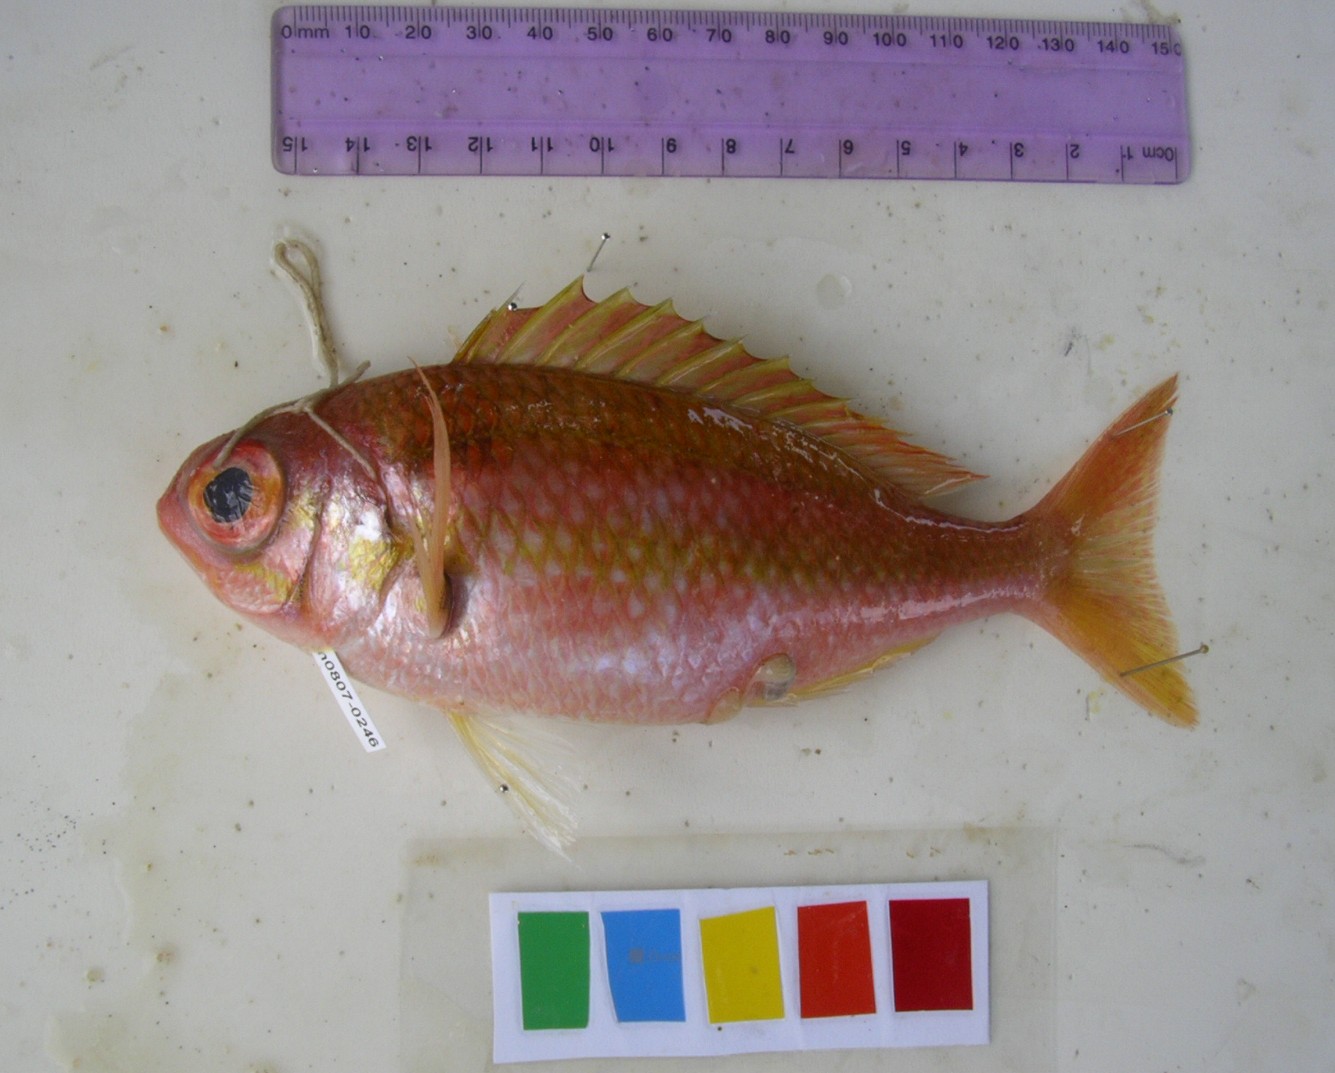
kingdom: Animalia
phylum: Chordata
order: Perciformes
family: Nemipteridae
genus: Parascolopsis
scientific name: Parascolopsis eriomma
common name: Rosy dwarf monocle bream
